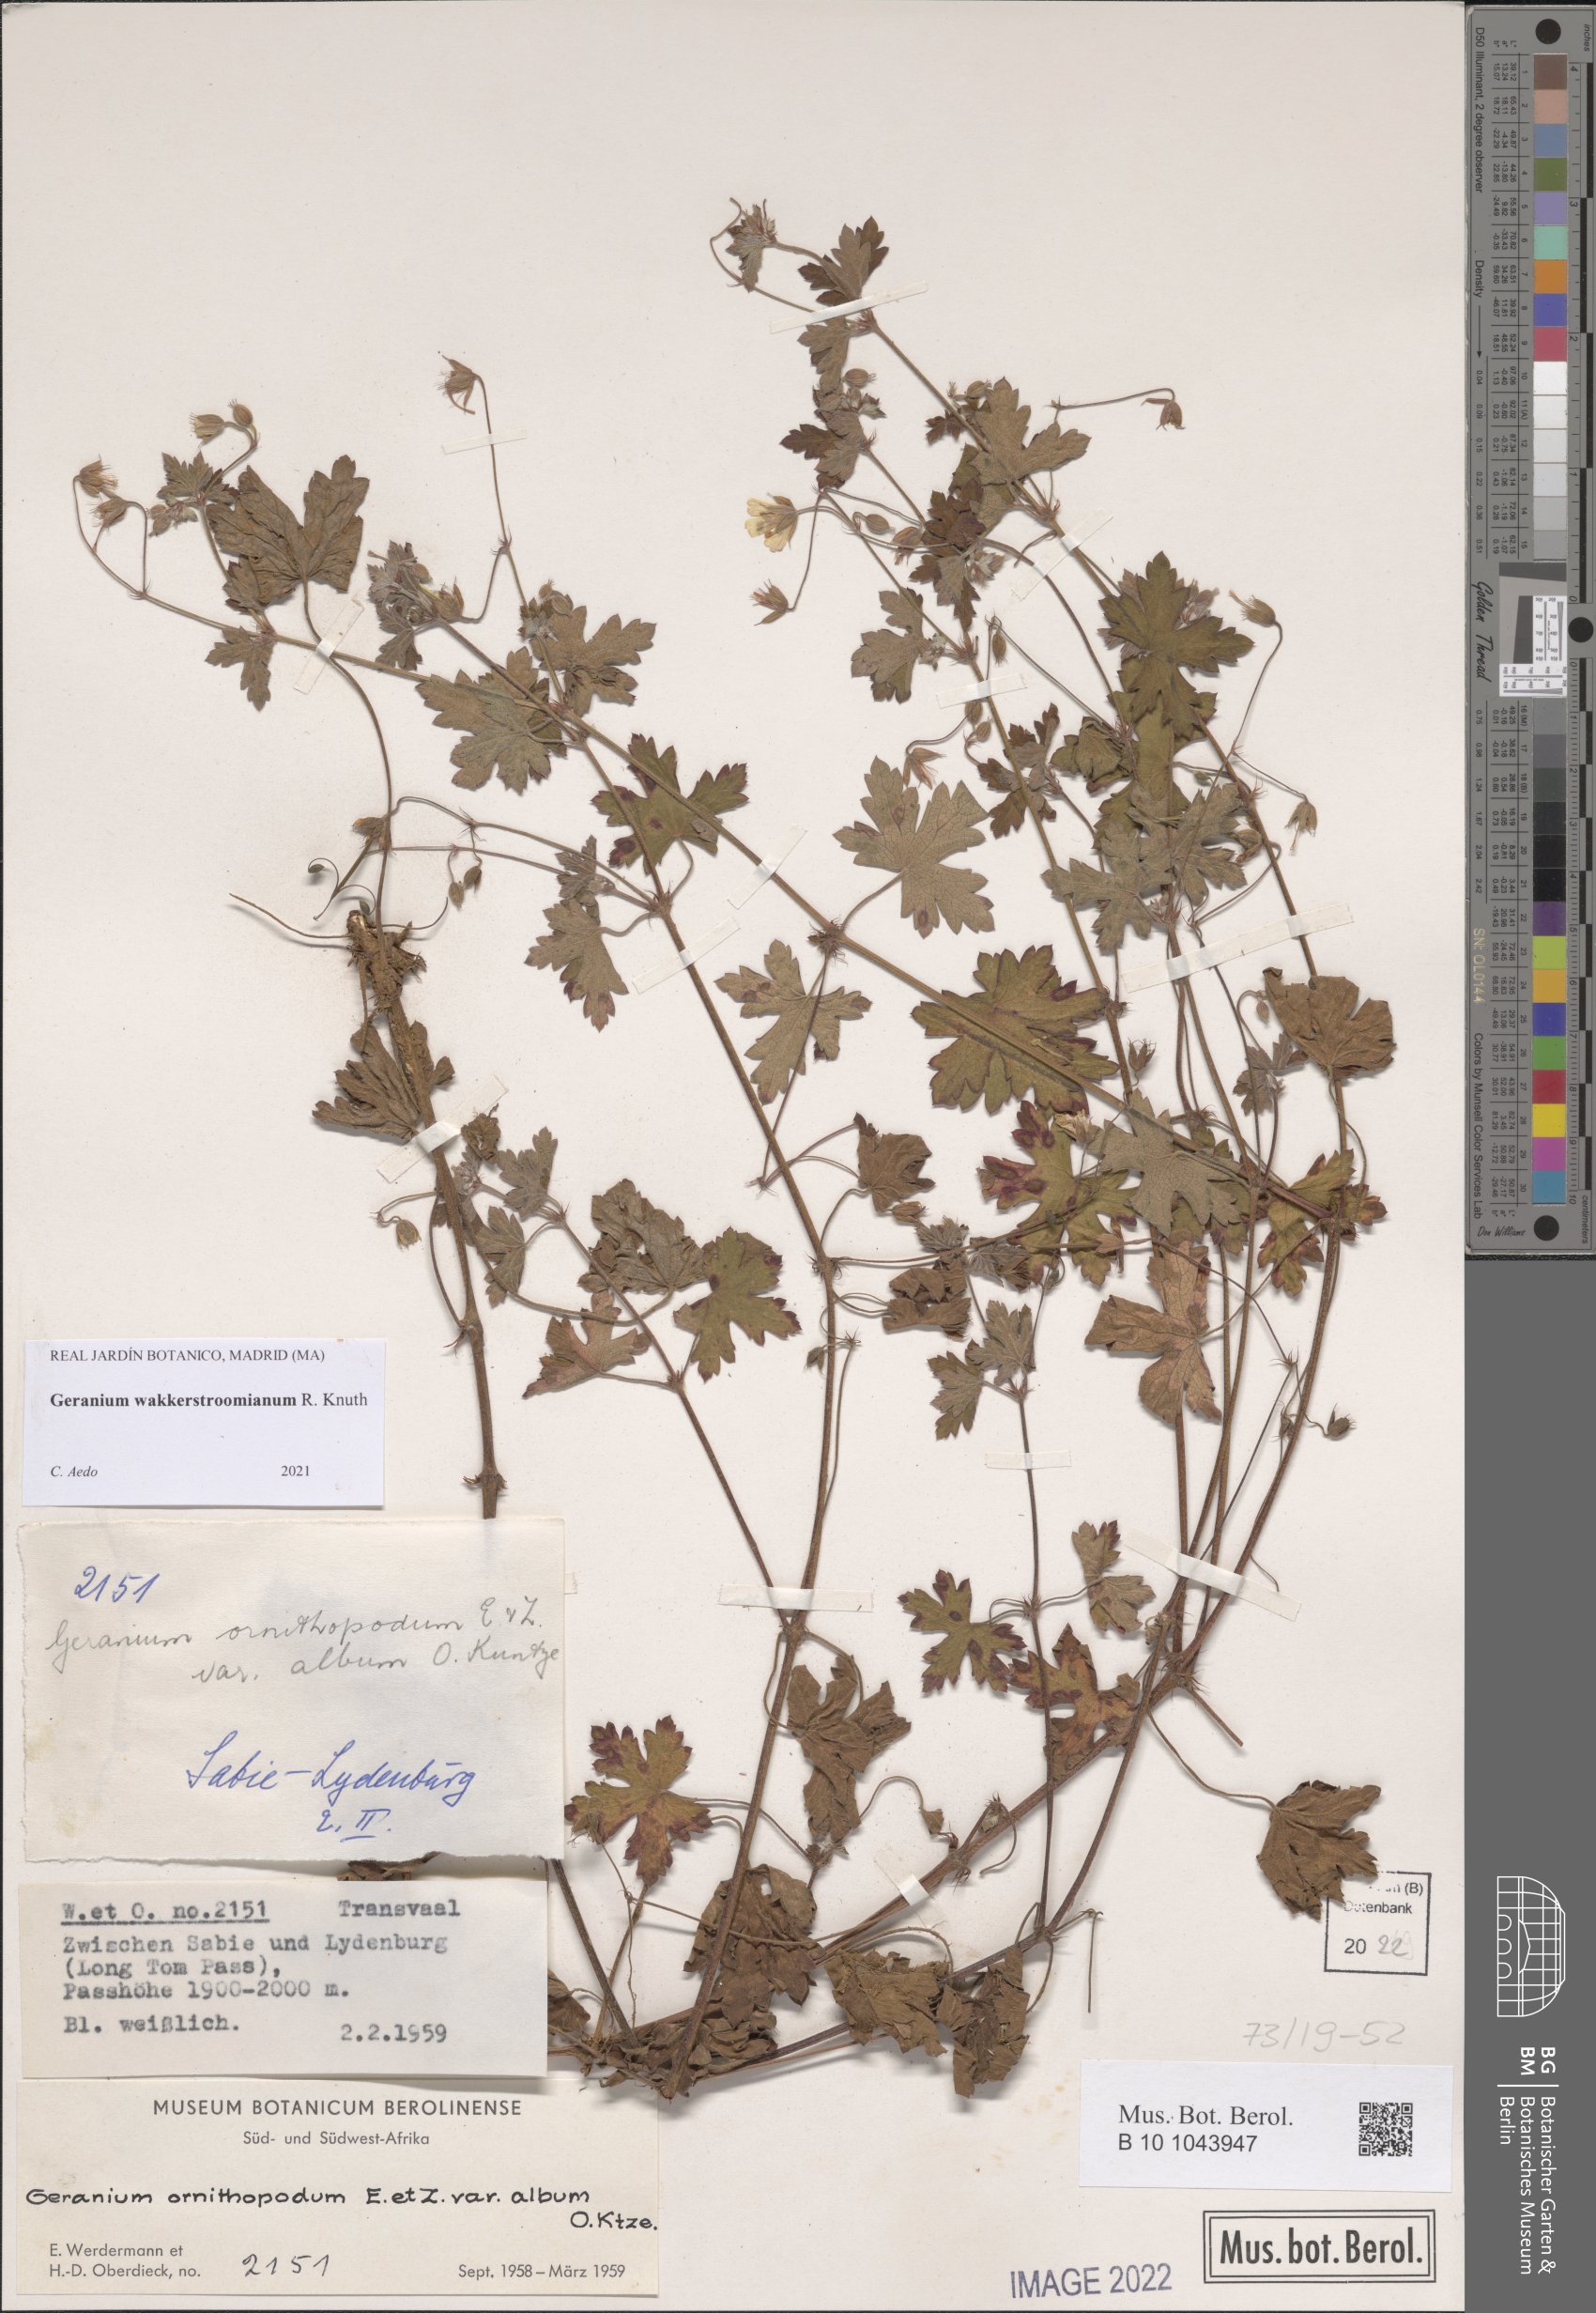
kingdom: Plantae
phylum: Tracheophyta
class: Magnoliopsida
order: Geraniales
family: Geraniaceae
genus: Geranium
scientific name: Geranium wakkerstroomianum
